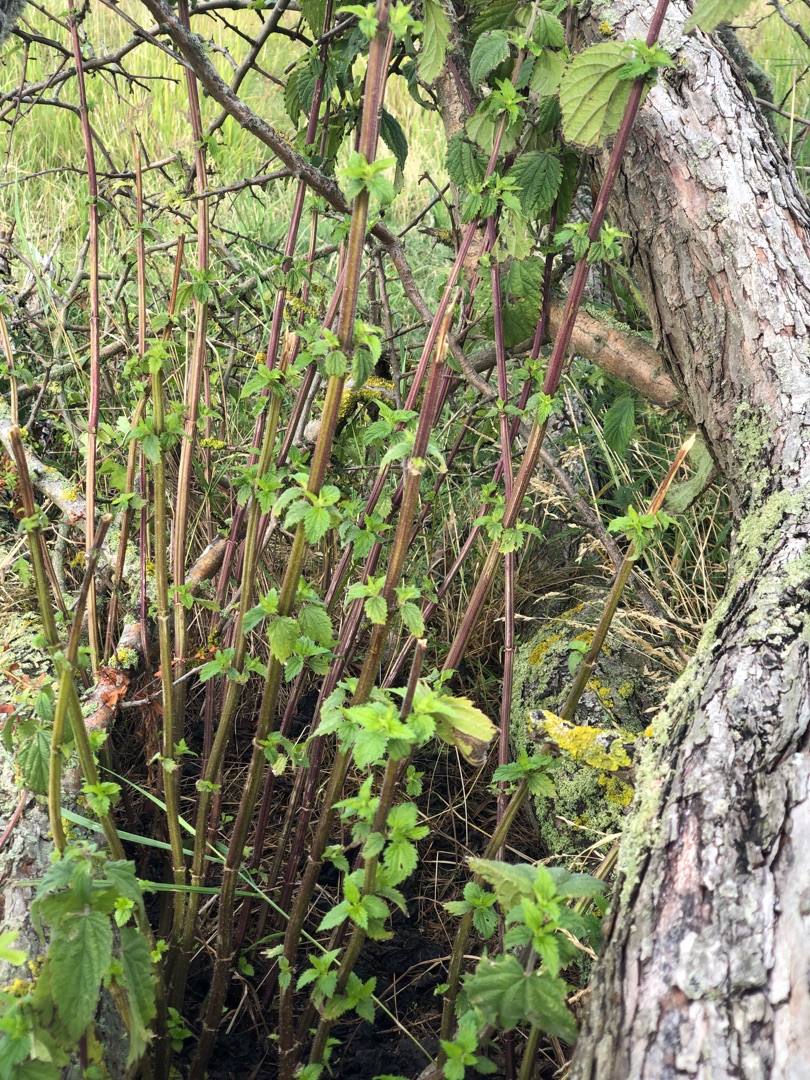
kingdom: Plantae
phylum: Tracheophyta
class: Magnoliopsida
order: Rosales
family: Urticaceae
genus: Urtica
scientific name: Urtica dioica
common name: Stor nælde
